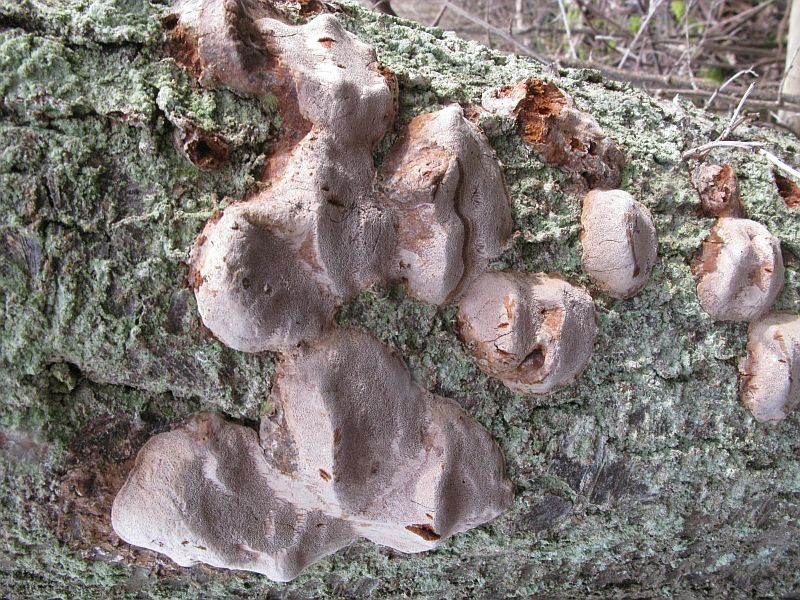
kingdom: Fungi
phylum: Basidiomycota
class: Agaricomycetes
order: Hymenochaetales
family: Hymenochaetaceae
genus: Phellinus
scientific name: Phellinus pomaceus
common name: blomme-ildporesvamp
